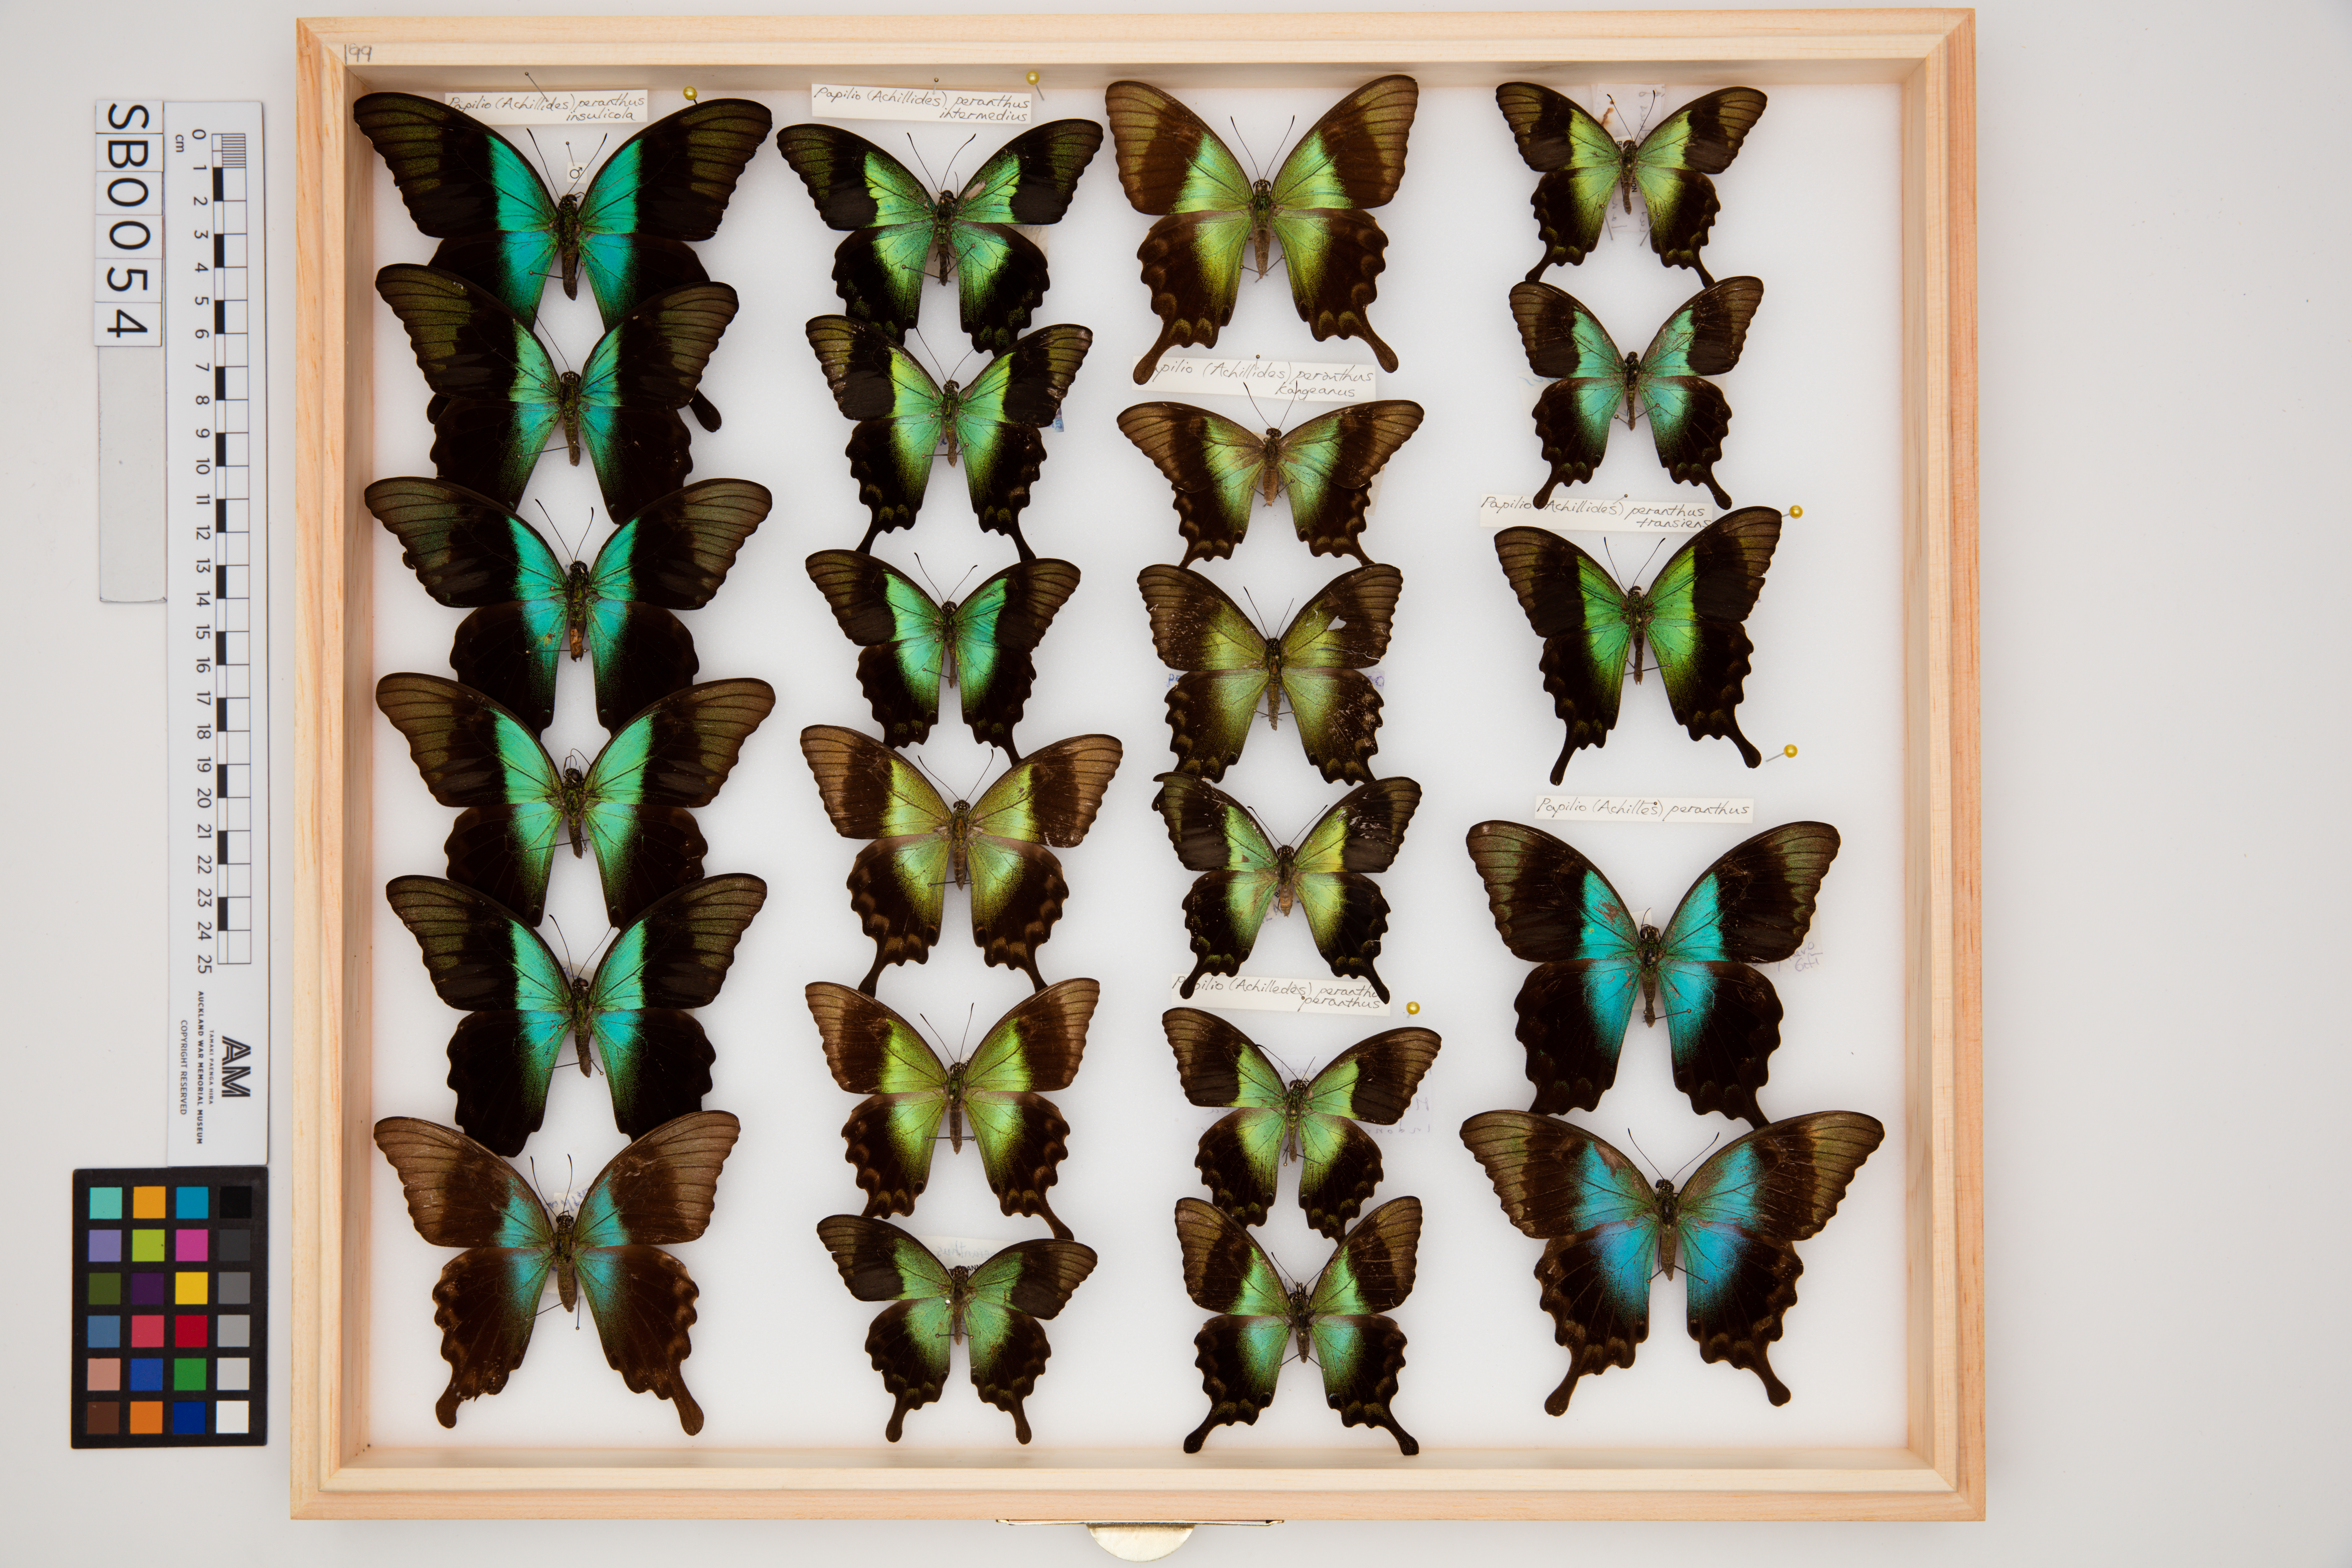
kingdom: Animalia
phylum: Arthropoda
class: Insecta
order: Lepidoptera
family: Papilionidae
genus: Papilio
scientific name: Papilio peranthus
